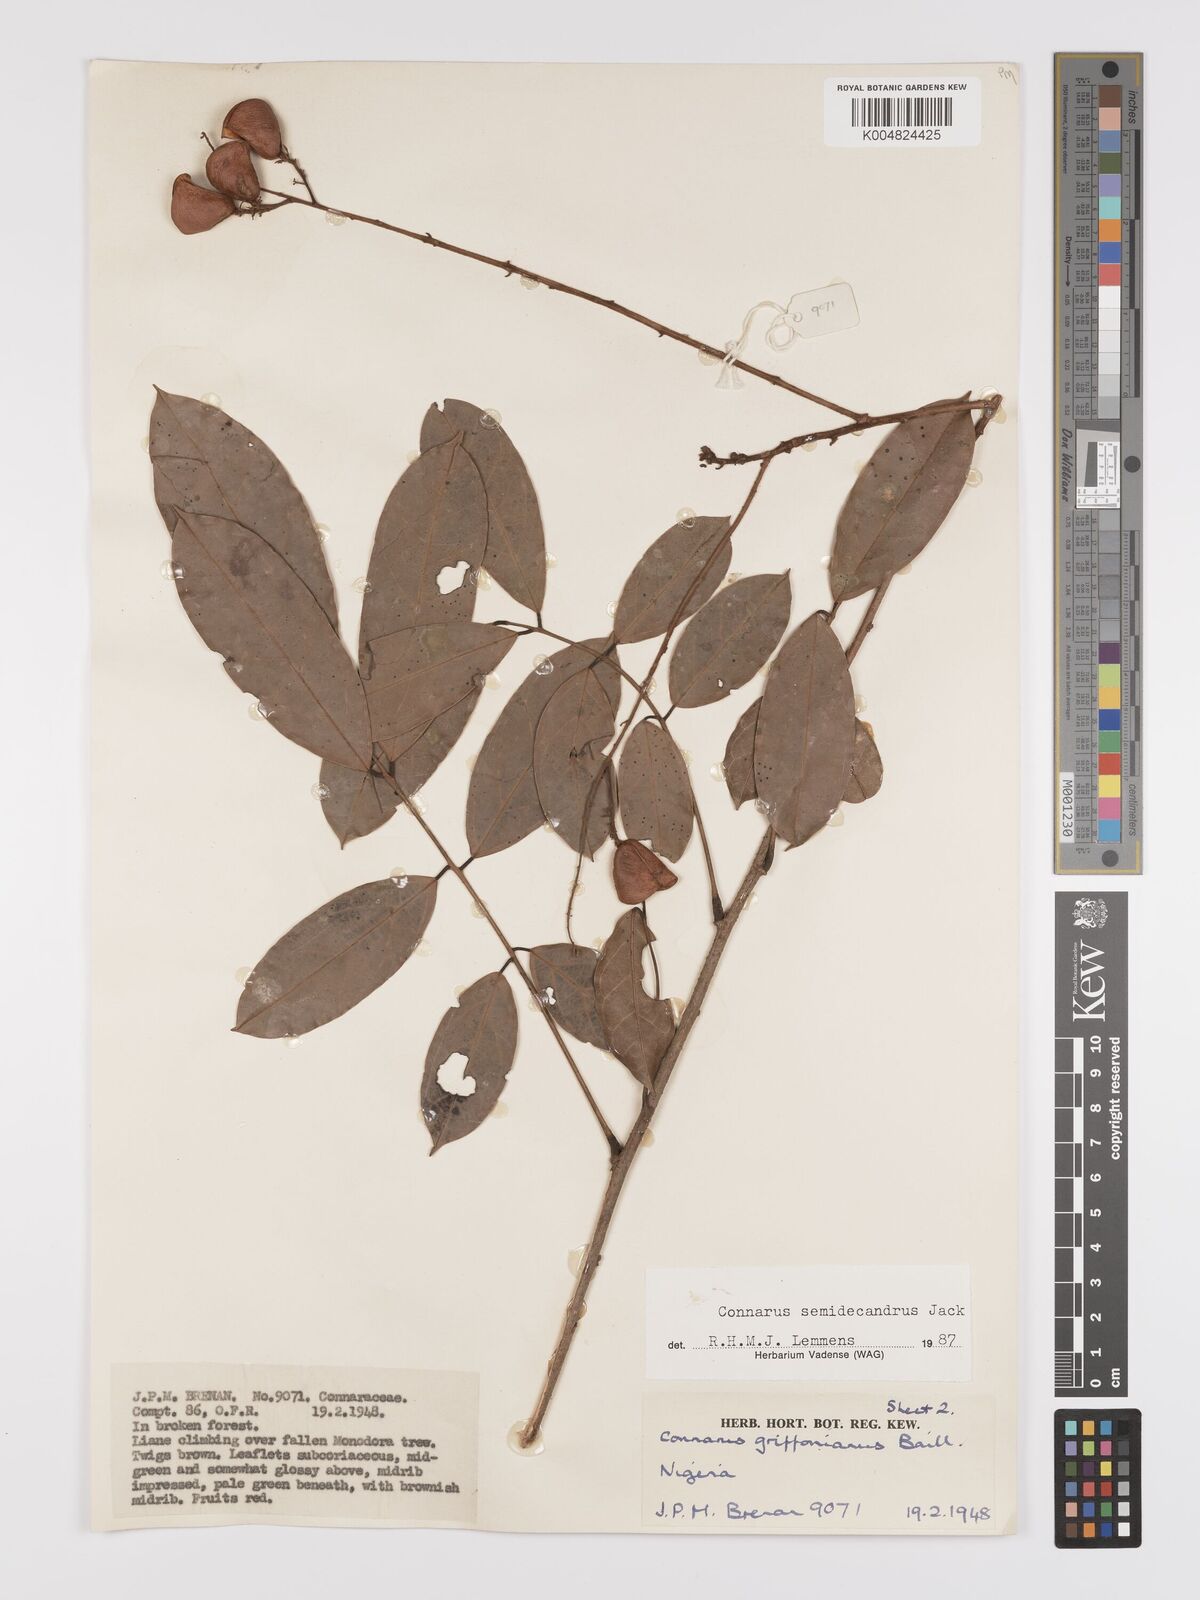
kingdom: Plantae
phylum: Tracheophyta
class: Magnoliopsida
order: Oxalidales
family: Connaraceae
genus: Connarus
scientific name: Connarus griffonianus
